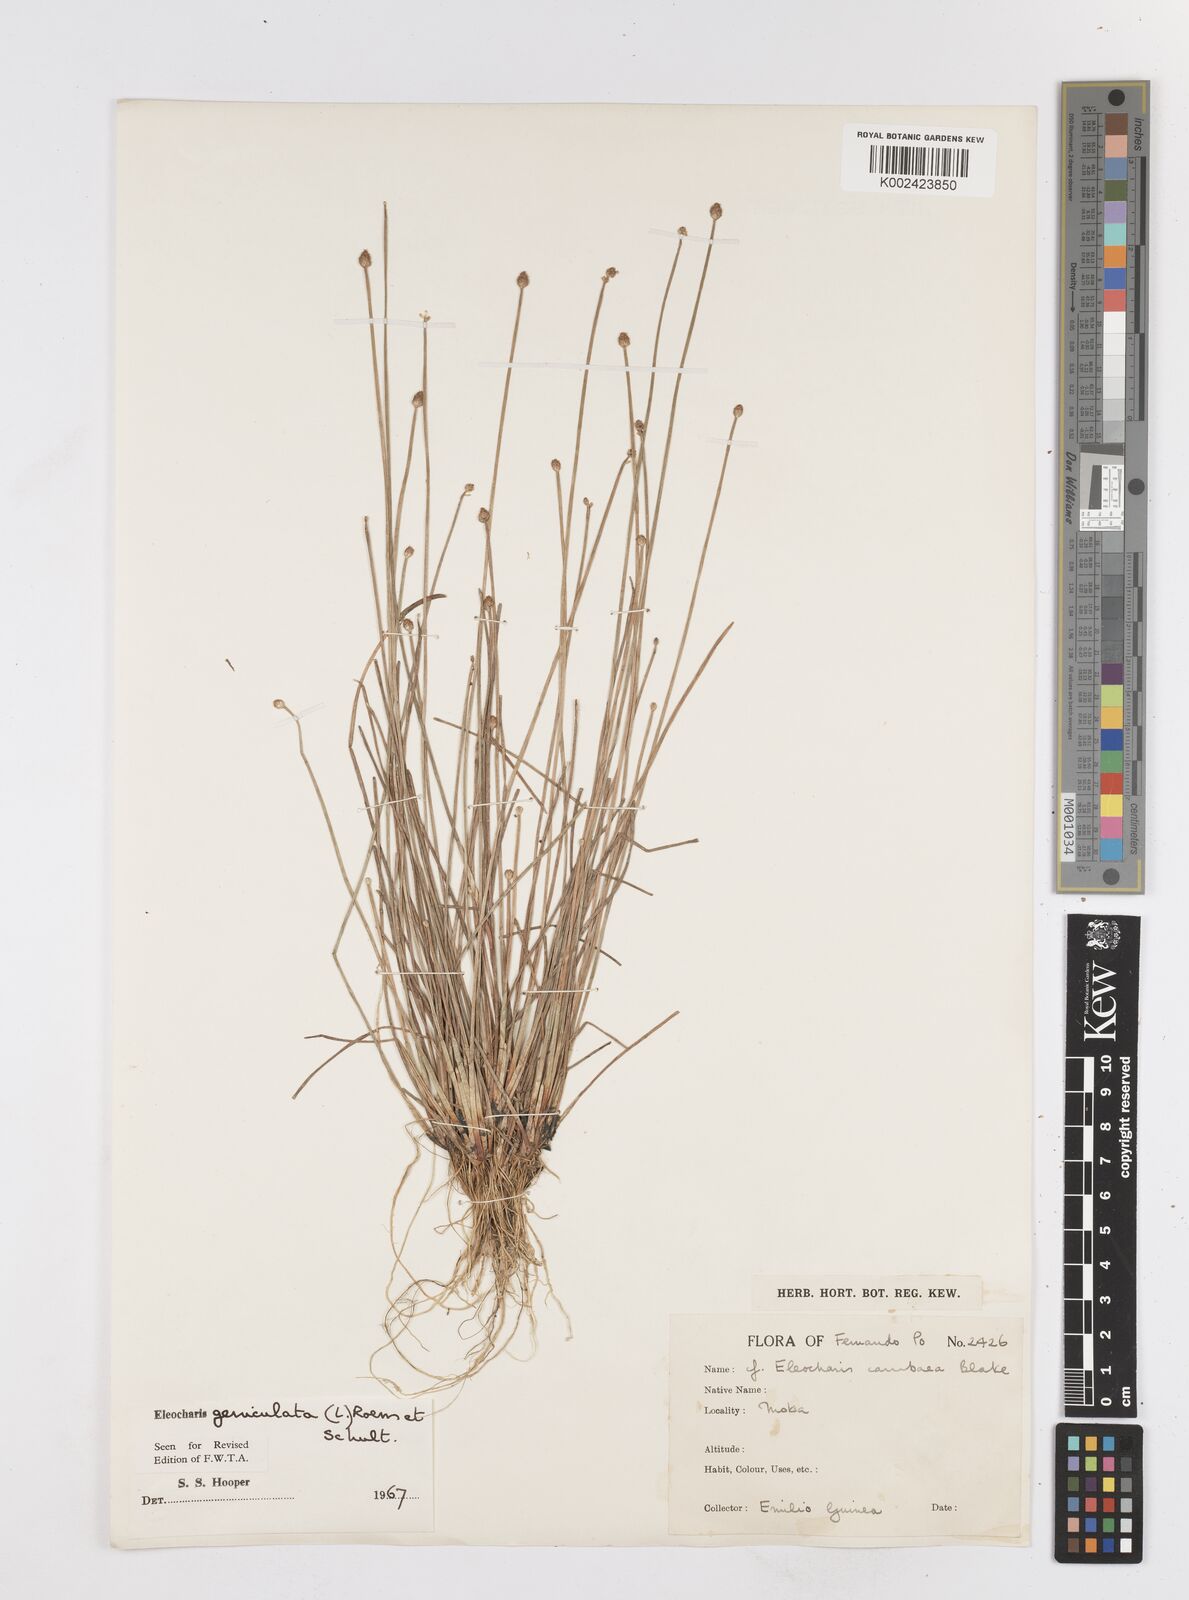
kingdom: Plantae
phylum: Tracheophyta
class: Liliopsida
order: Poales
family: Cyperaceae
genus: Eleocharis
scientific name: Eleocharis geniculata
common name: Canada spikesedge
